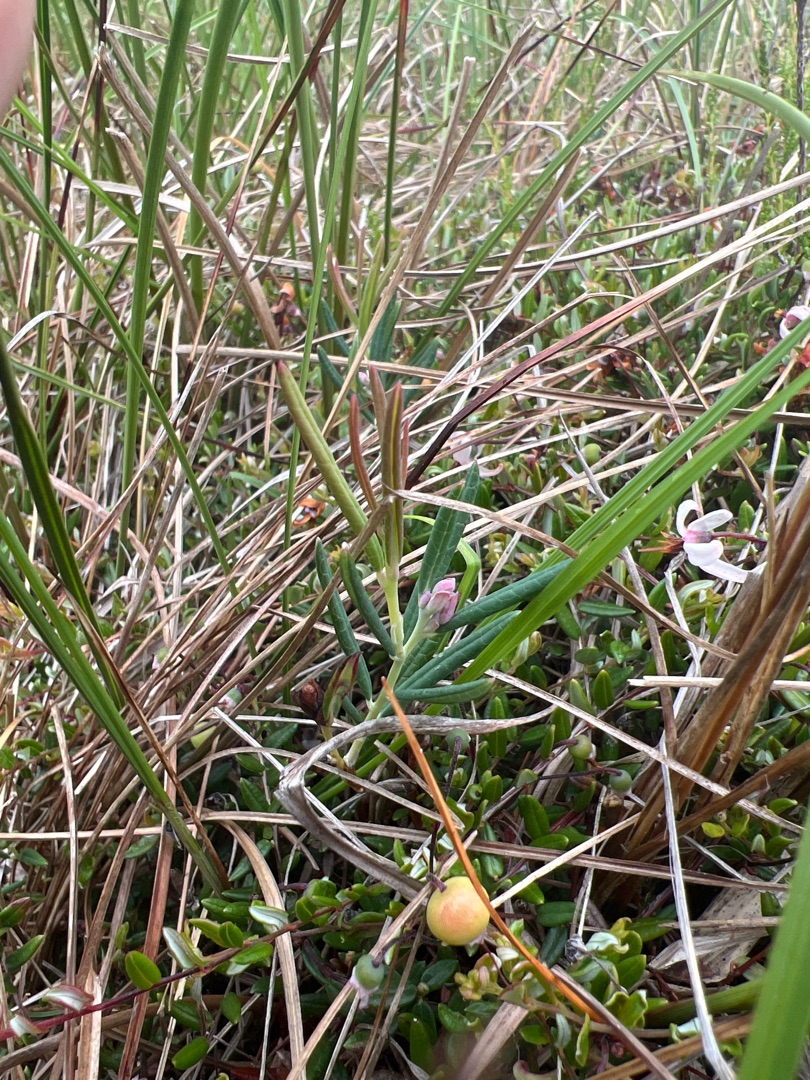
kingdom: Plantae
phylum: Tracheophyta
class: Magnoliopsida
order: Ericales
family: Ericaceae
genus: Andromeda
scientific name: Andromeda polifolia
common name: Rosmarinlyng
